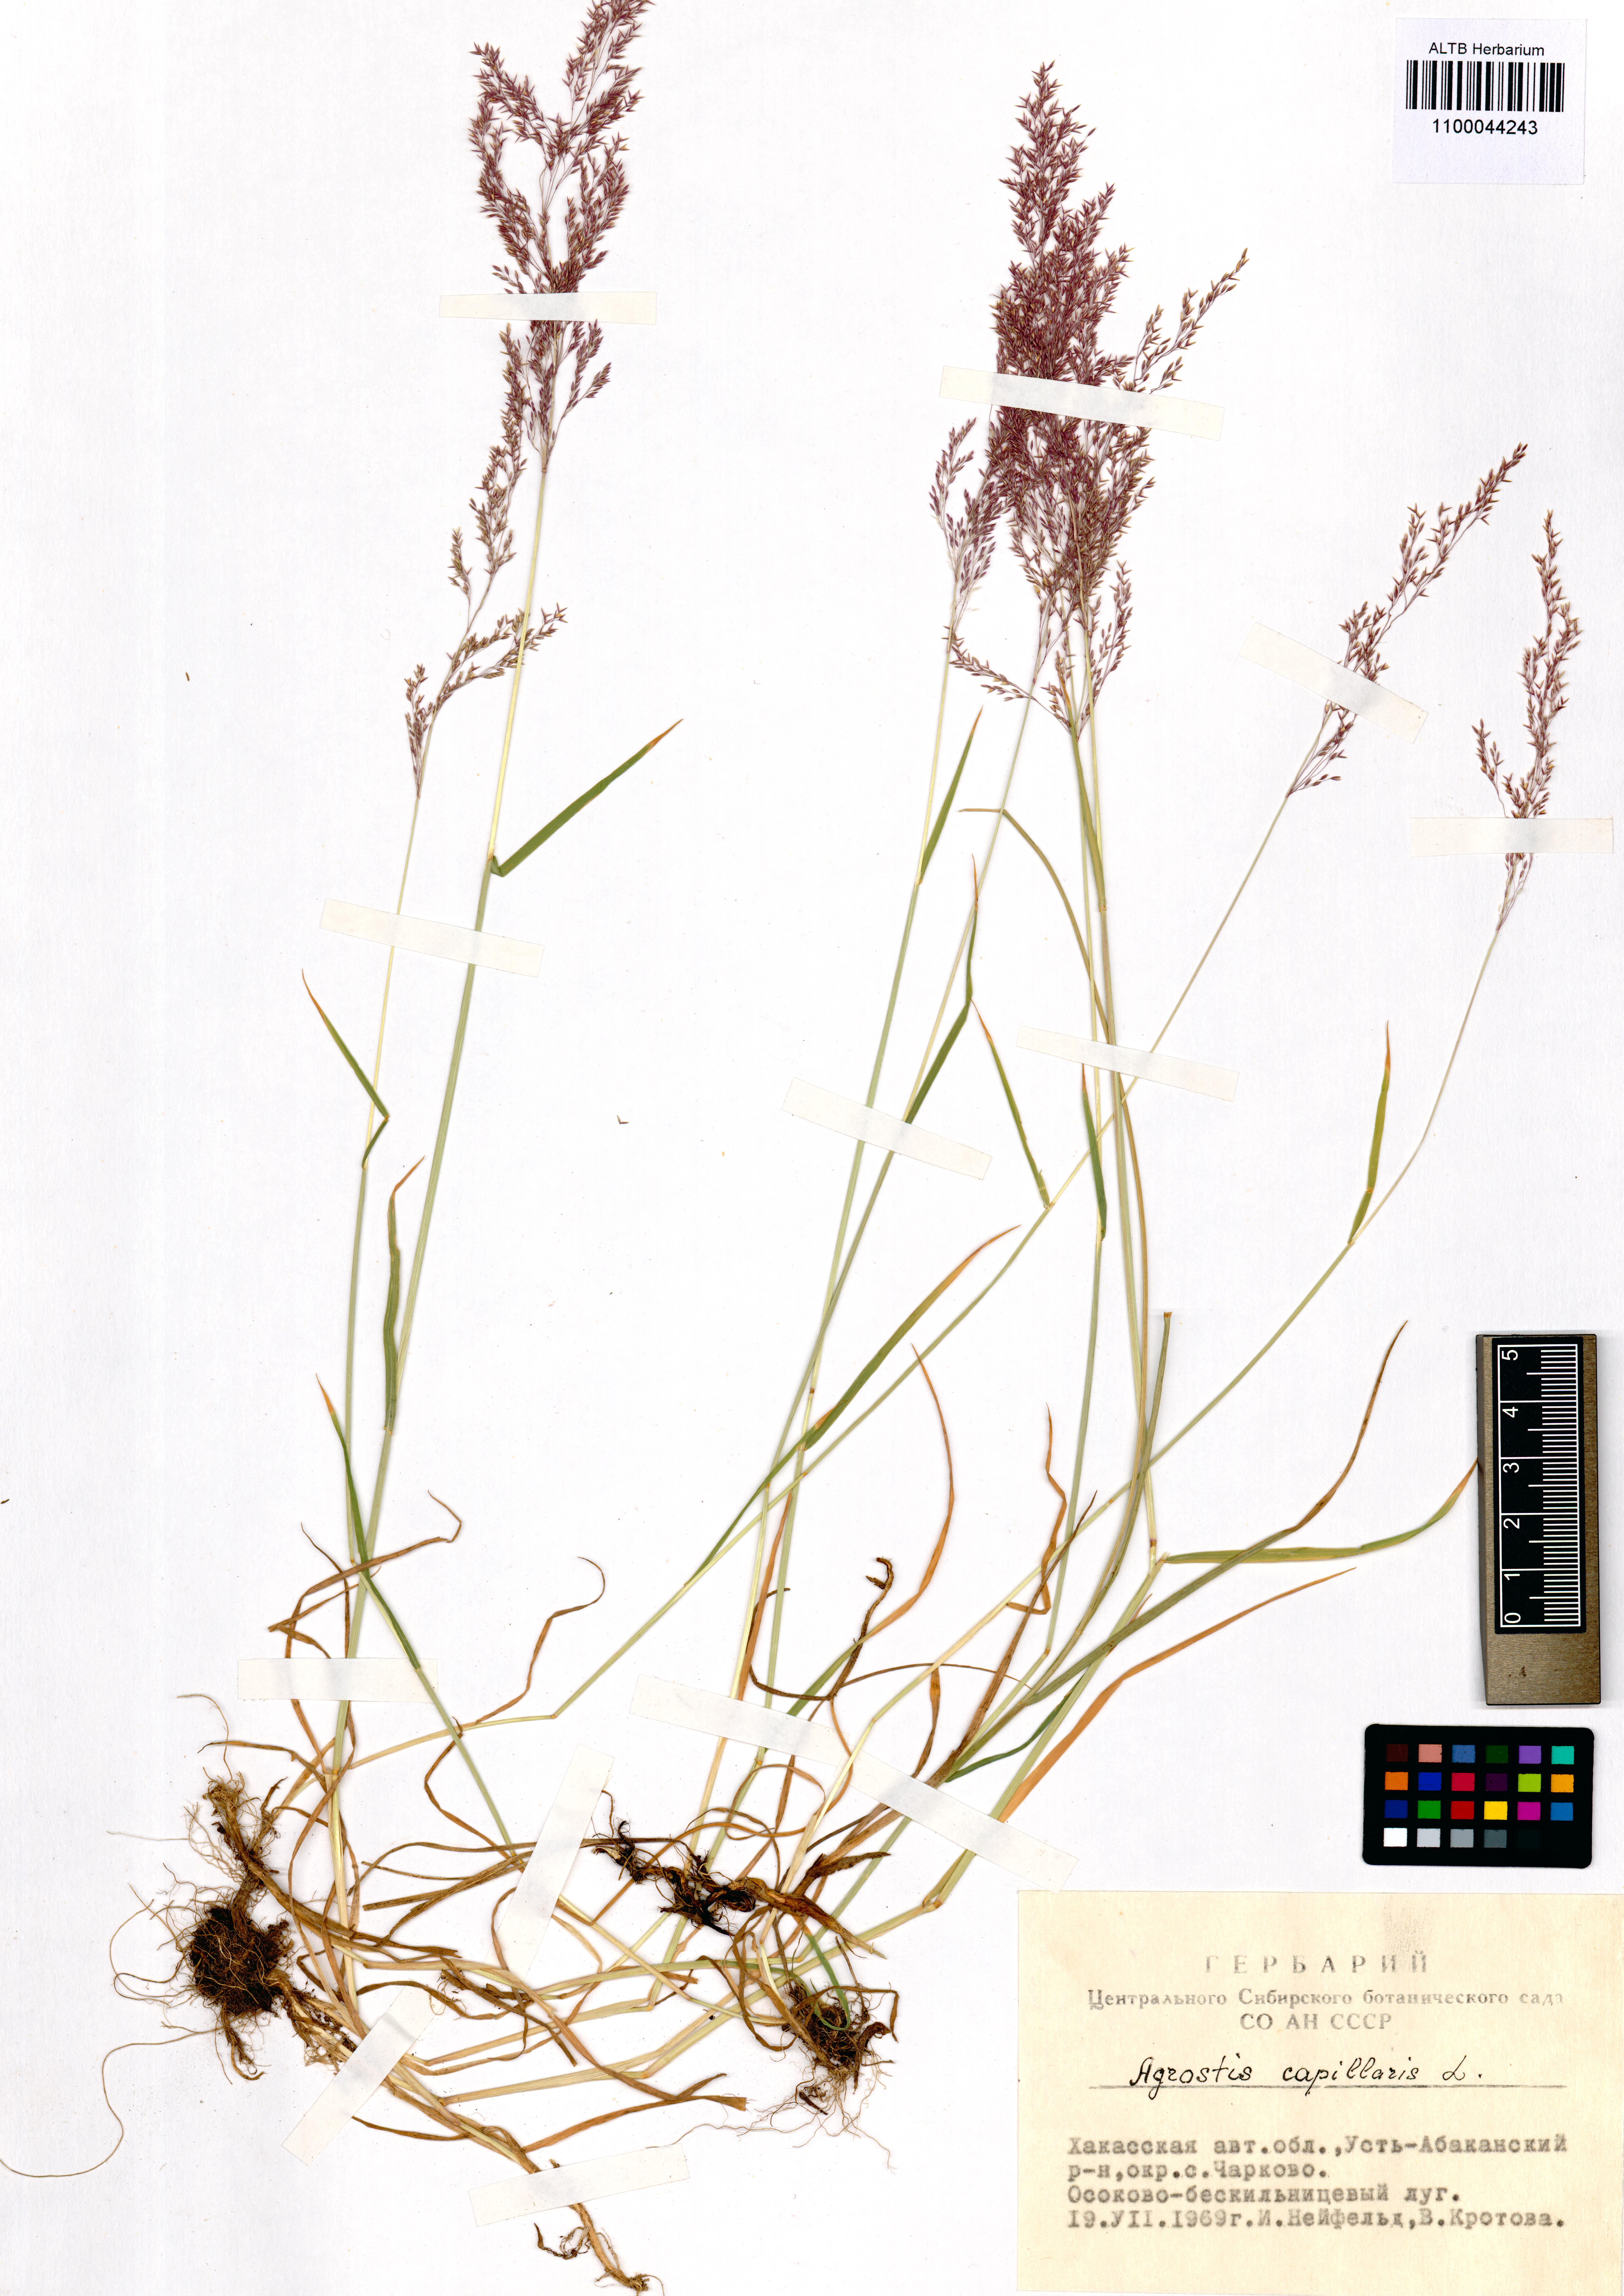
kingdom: Plantae
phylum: Tracheophyta
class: Liliopsida
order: Poales
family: Poaceae
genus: Agrostis
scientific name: Agrostis capillaris
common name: Colonial bentgrass
